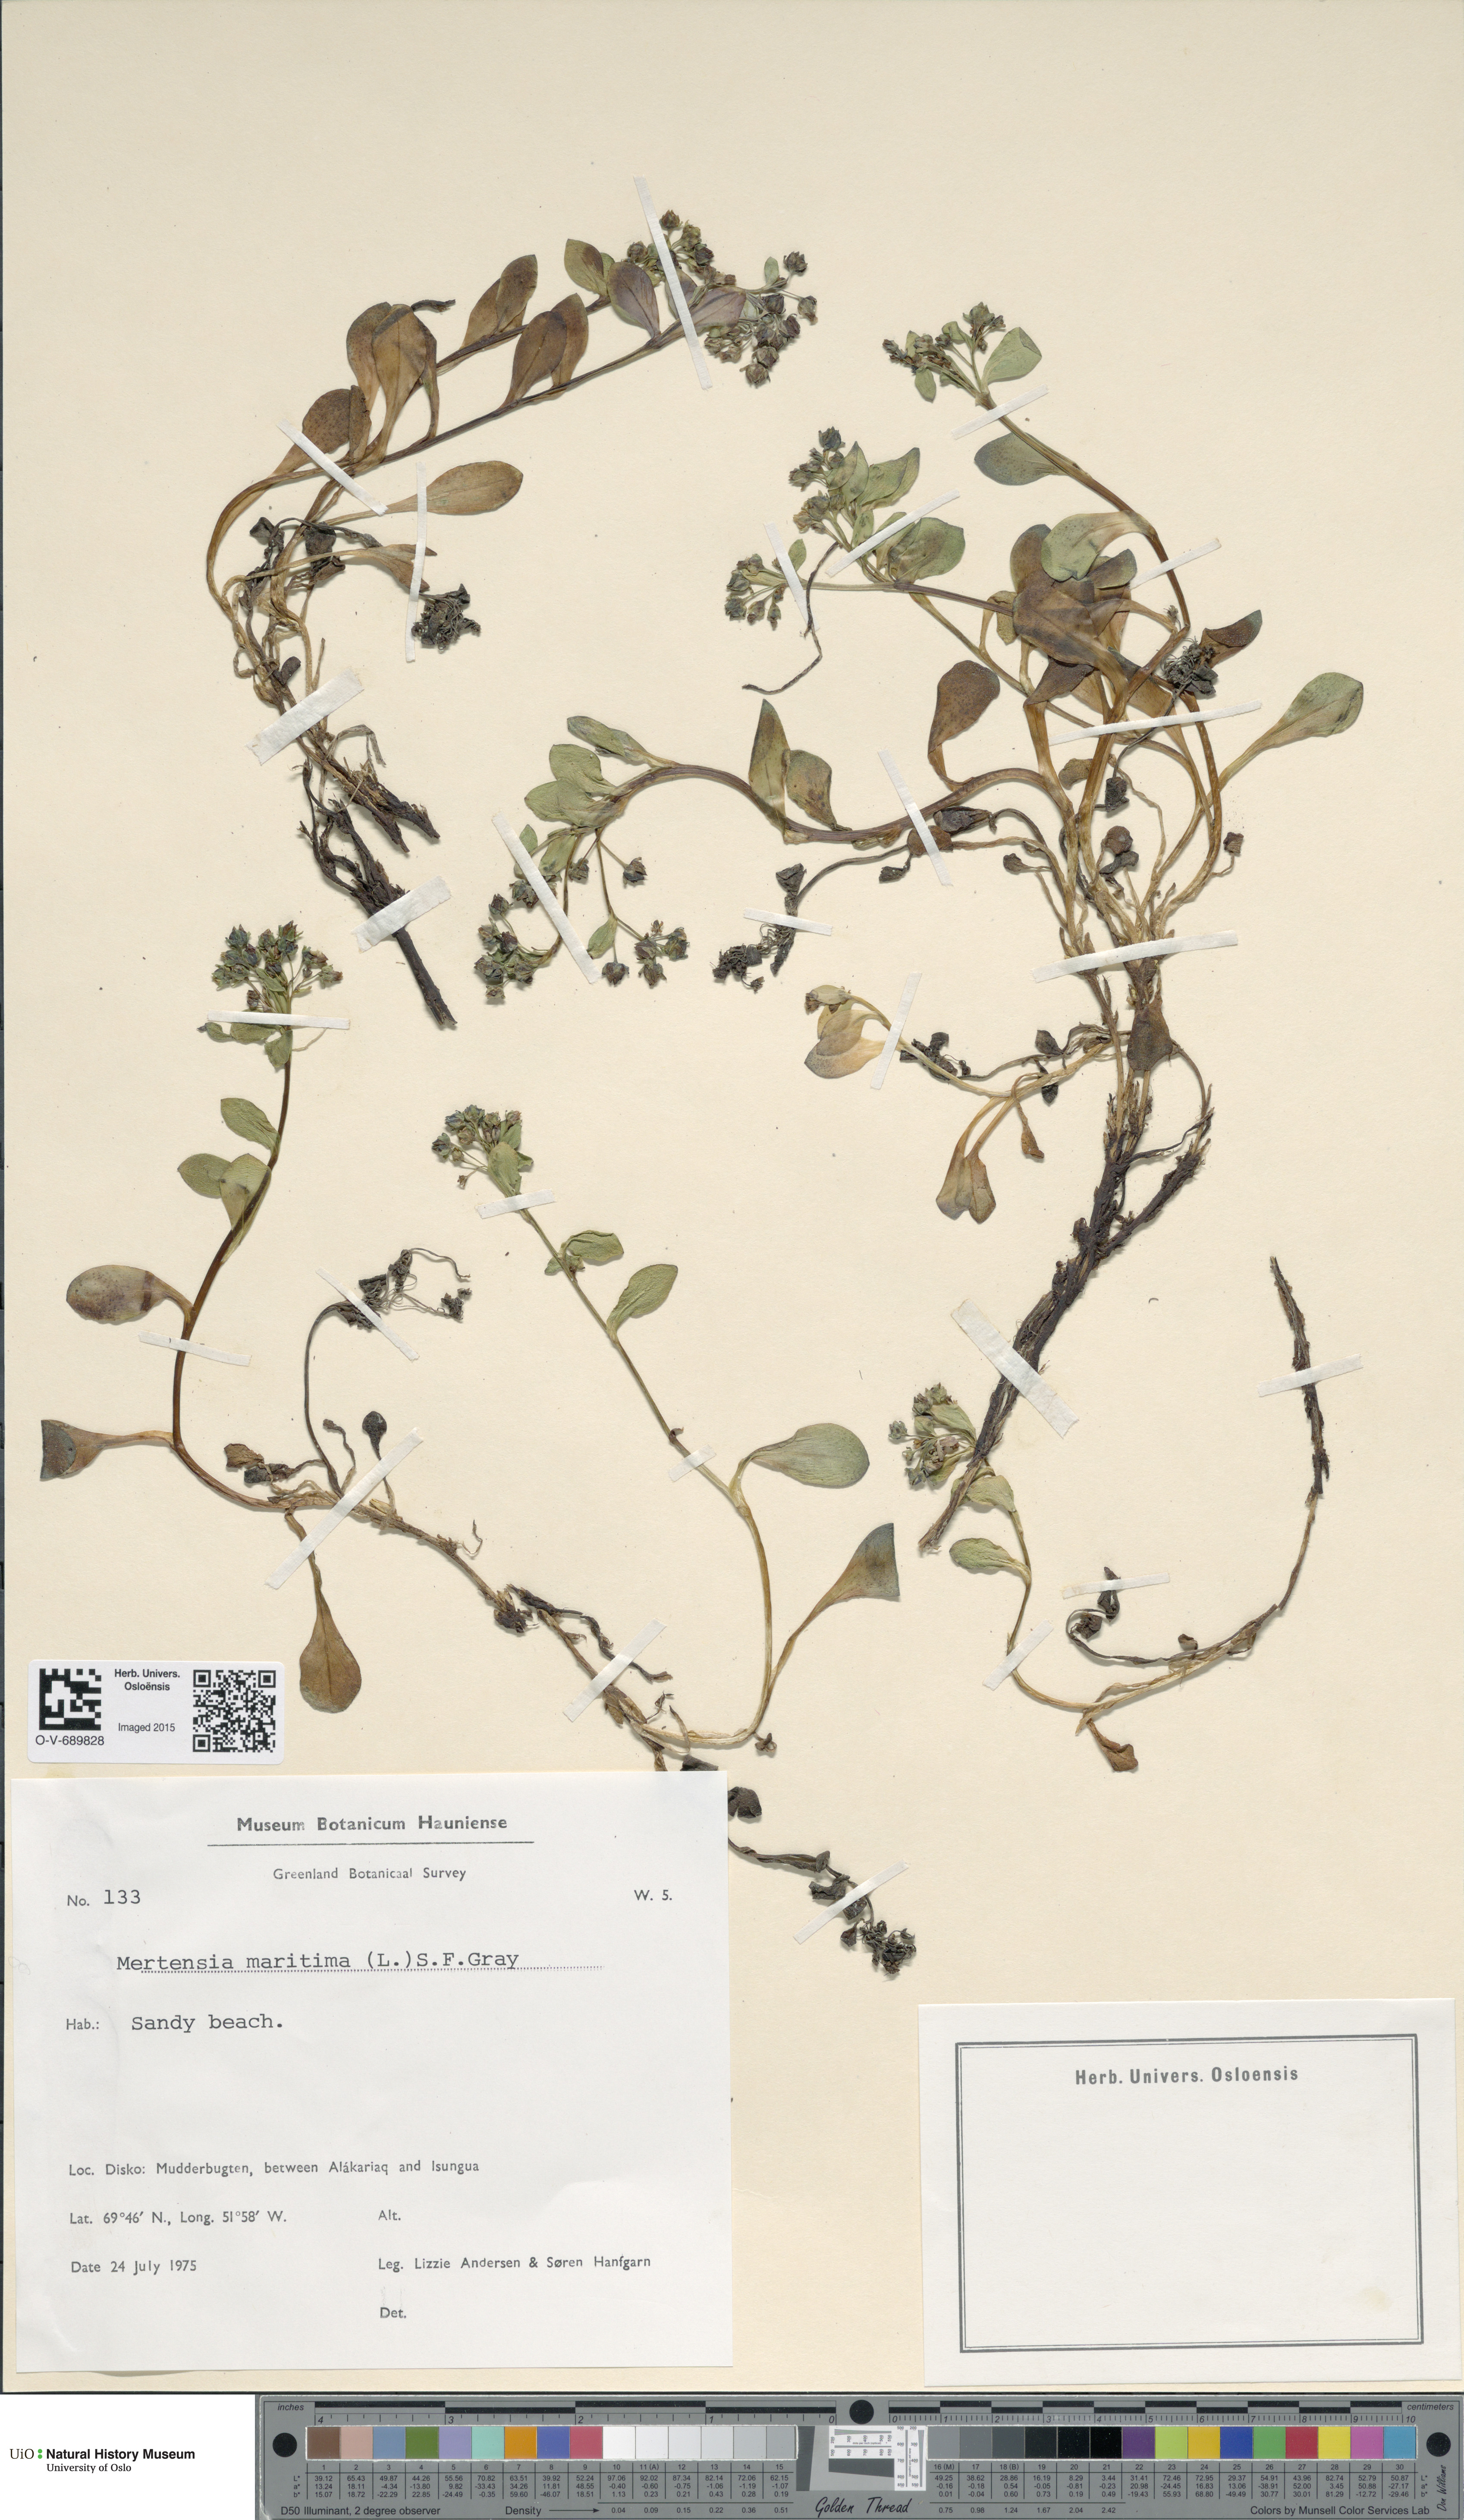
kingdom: Plantae
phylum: Tracheophyta
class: Magnoliopsida
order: Boraginales
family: Boraginaceae
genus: Mertensia
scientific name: Mertensia maritima
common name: Oysterplant
